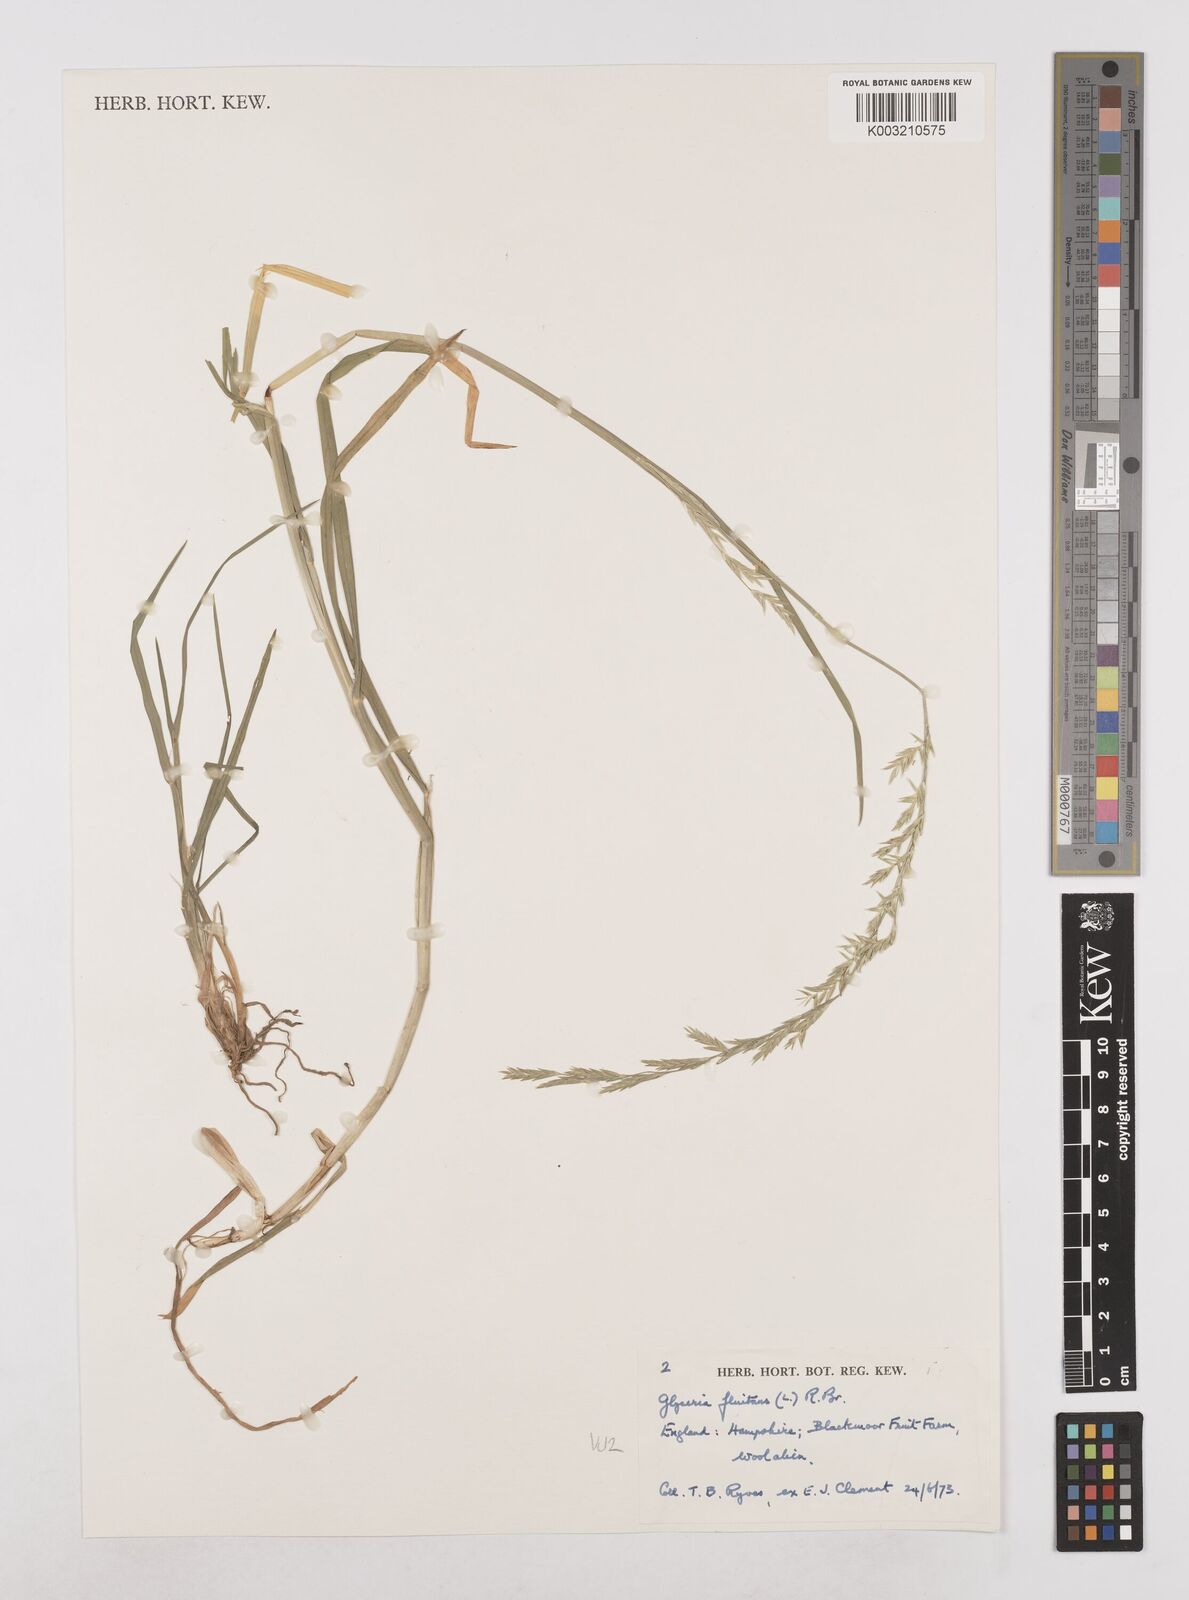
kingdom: Plantae
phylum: Tracheophyta
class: Liliopsida
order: Poales
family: Poaceae
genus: Glyceria
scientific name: Glyceria fluitans
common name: Floating sweet-grass
